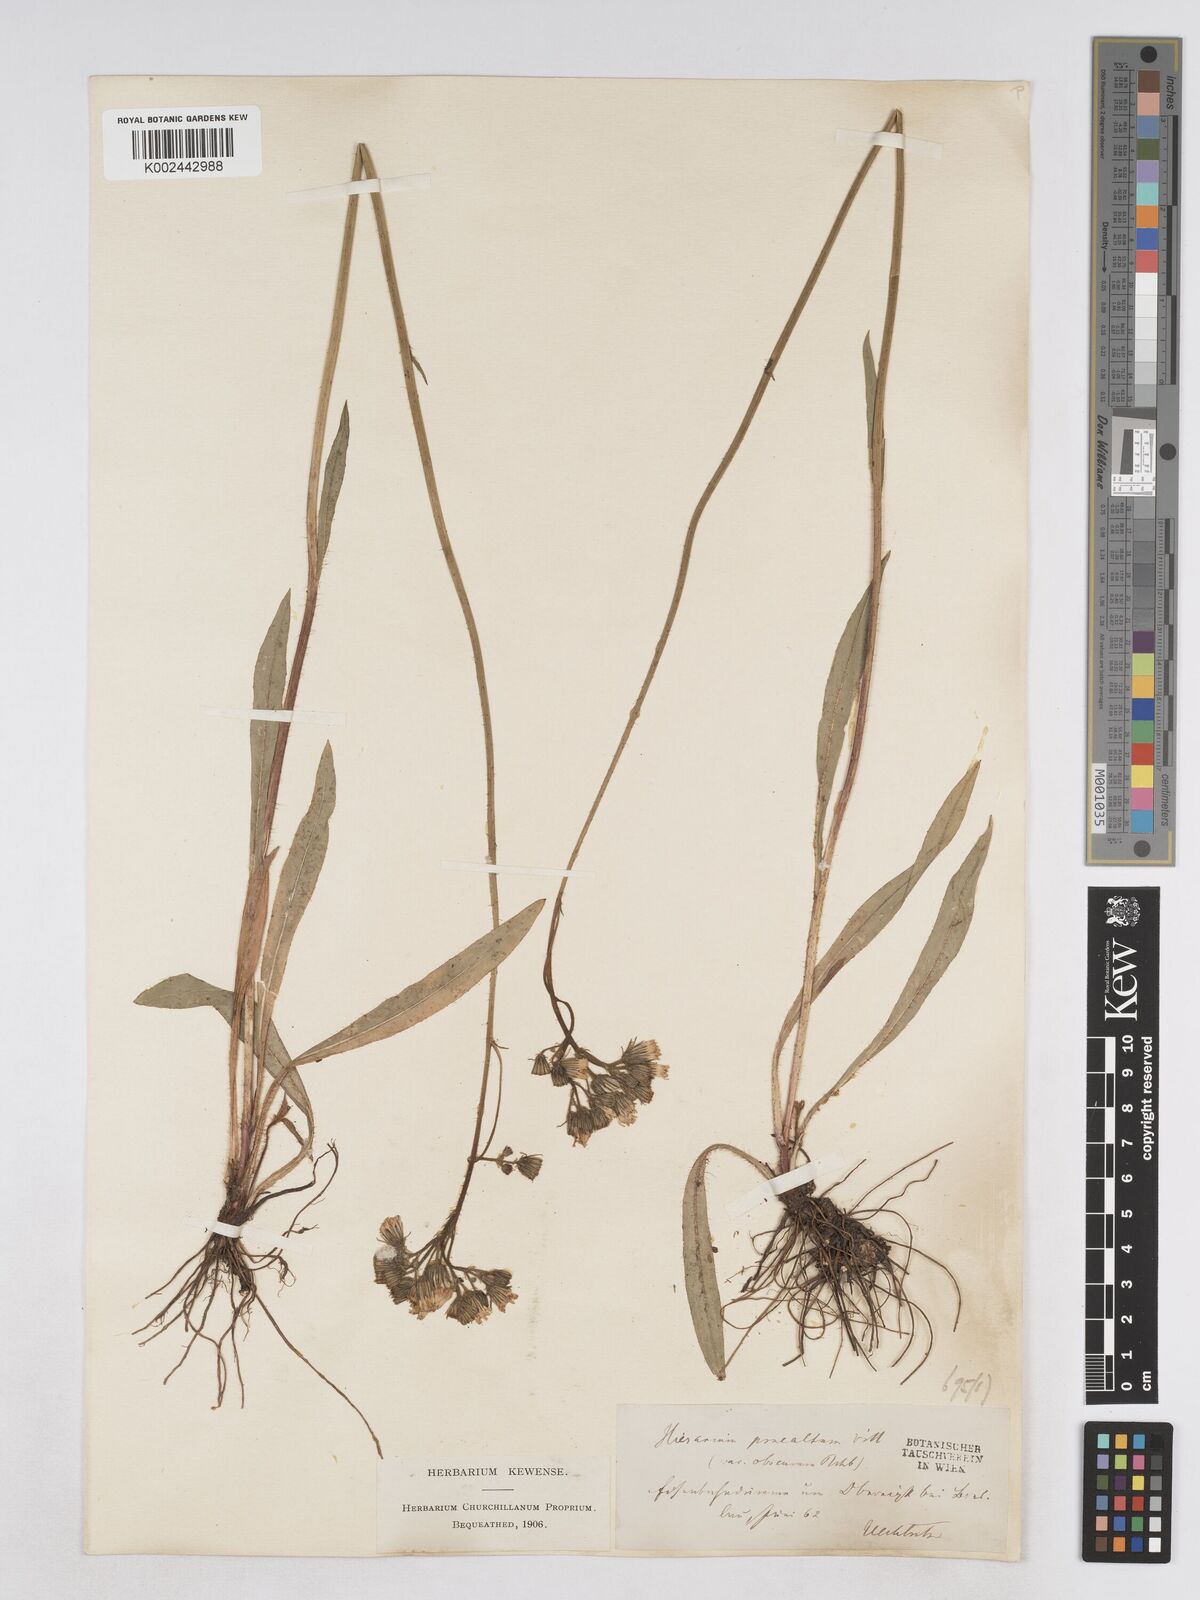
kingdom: Plantae
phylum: Tracheophyta
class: Magnoliopsida
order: Asterales
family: Asteraceae
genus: Pilosella
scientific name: Pilosella piloselloides
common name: Glaucous king-devil
